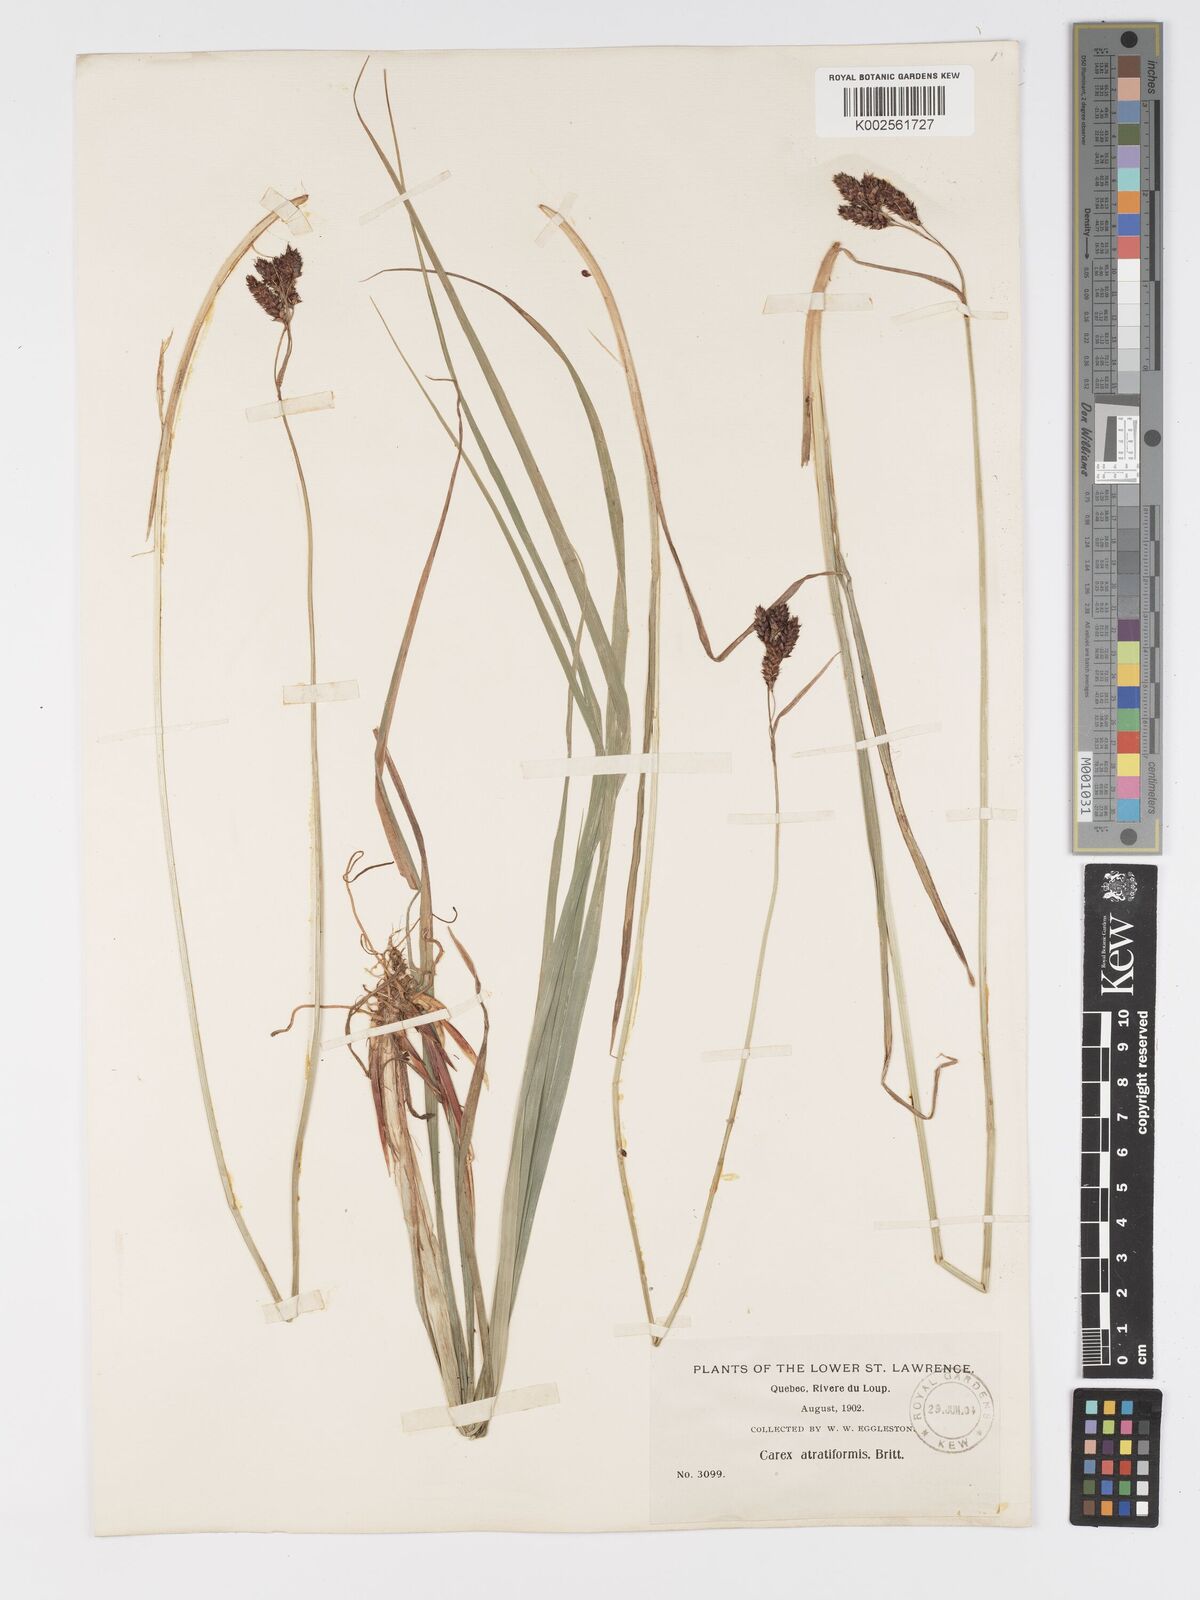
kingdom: Plantae
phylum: Tracheophyta
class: Liliopsida
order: Poales
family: Cyperaceae
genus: Carex
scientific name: Carex atratiformis
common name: Black sedge
